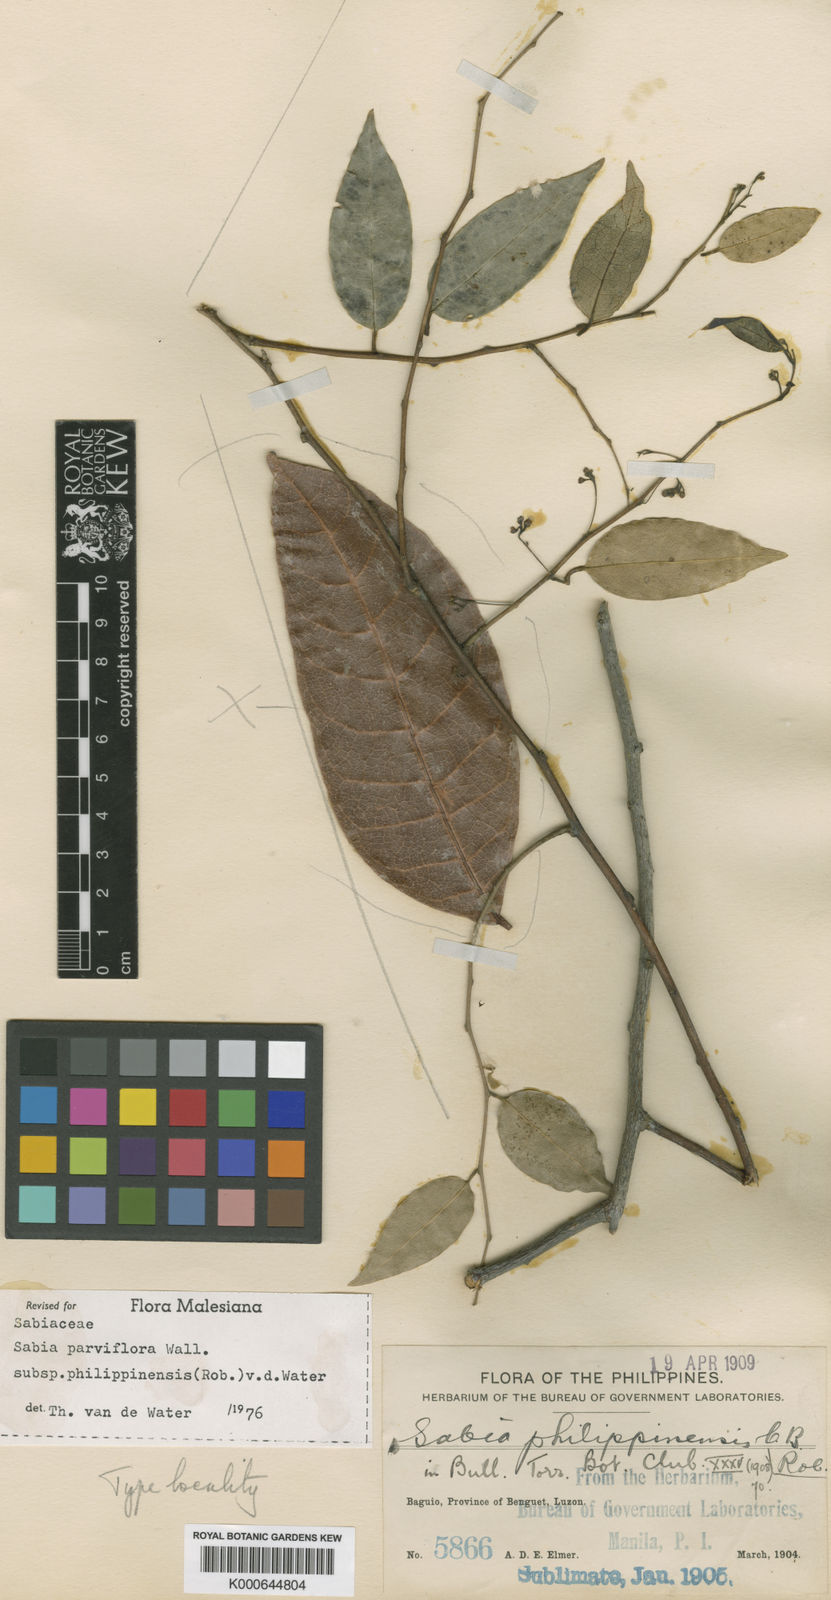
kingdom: Plantae
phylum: Tracheophyta
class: Magnoliopsida
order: Proteales
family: Sabiaceae
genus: Sabia
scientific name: Sabia parviflora
